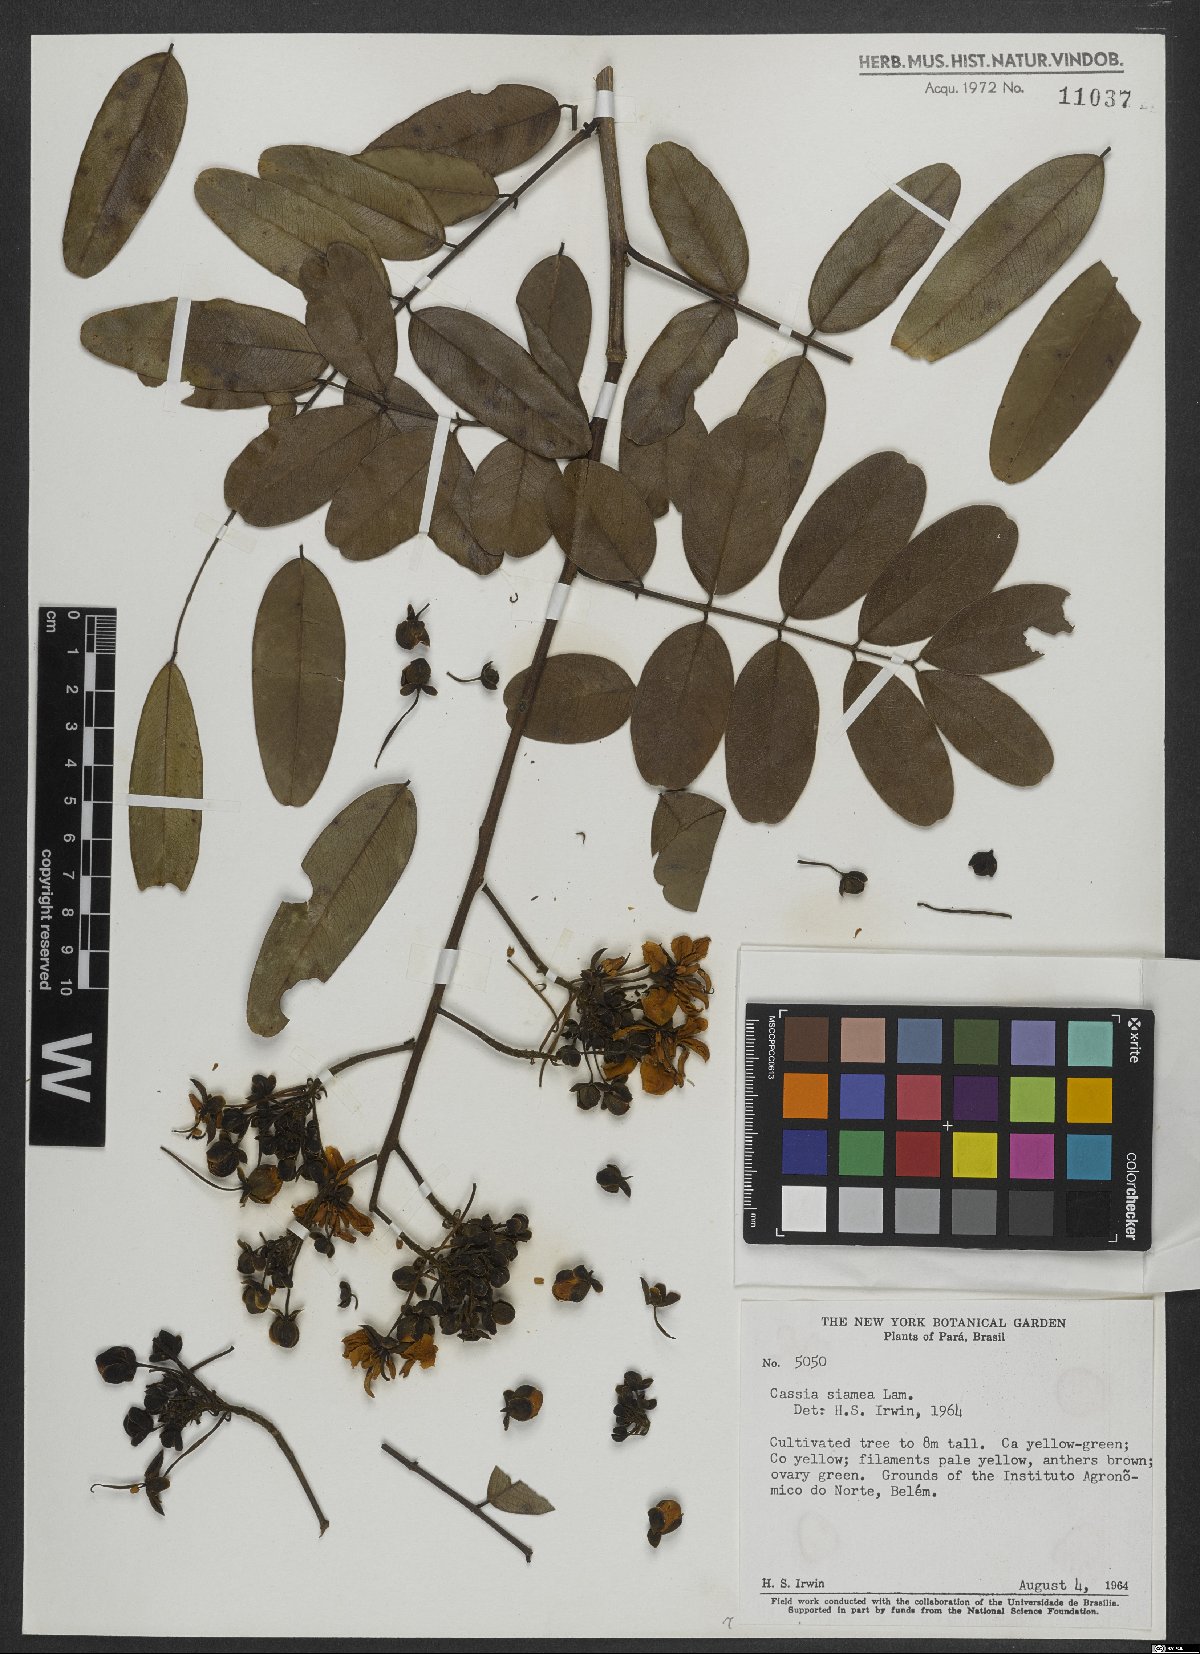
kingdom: Plantae
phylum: Tracheophyta
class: Magnoliopsida
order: Fabales
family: Fabaceae
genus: Senna
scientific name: Senna siamea
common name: Siamese cassia
